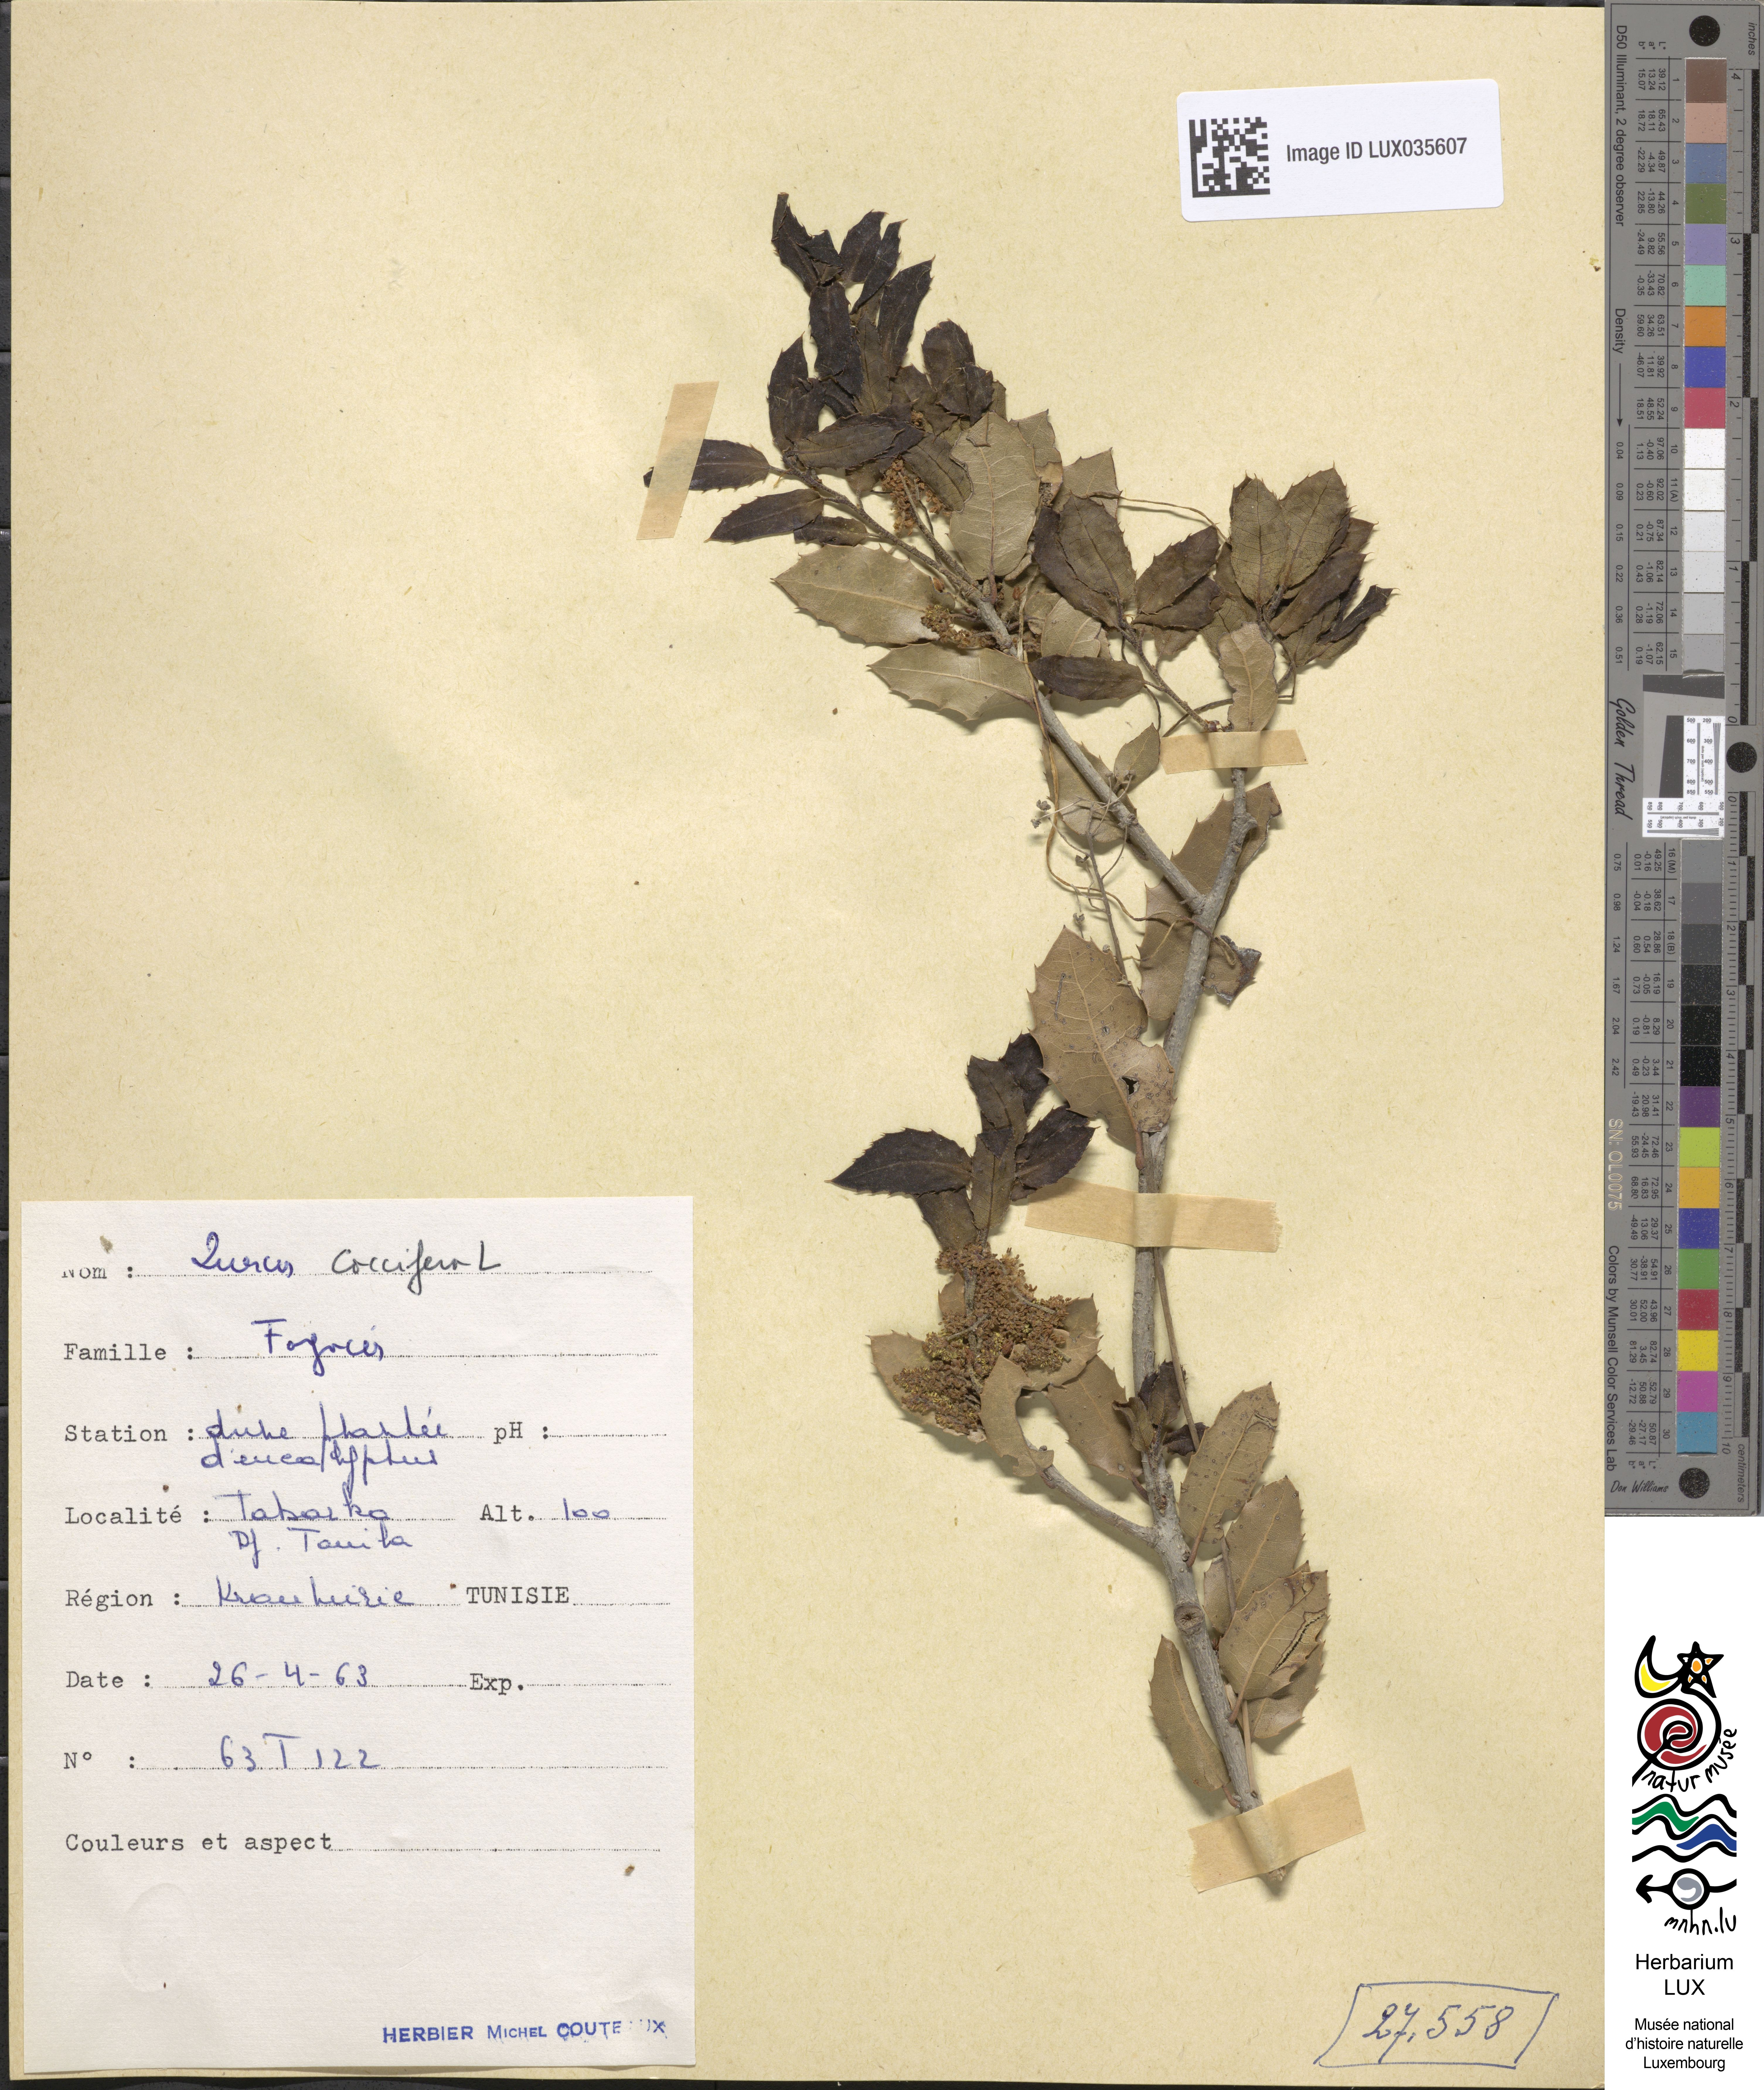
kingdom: Plantae
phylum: Tracheophyta
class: Magnoliopsida
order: Fagales
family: Fagaceae
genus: Quercus
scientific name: Quercus coccifera
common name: Kermes oak
